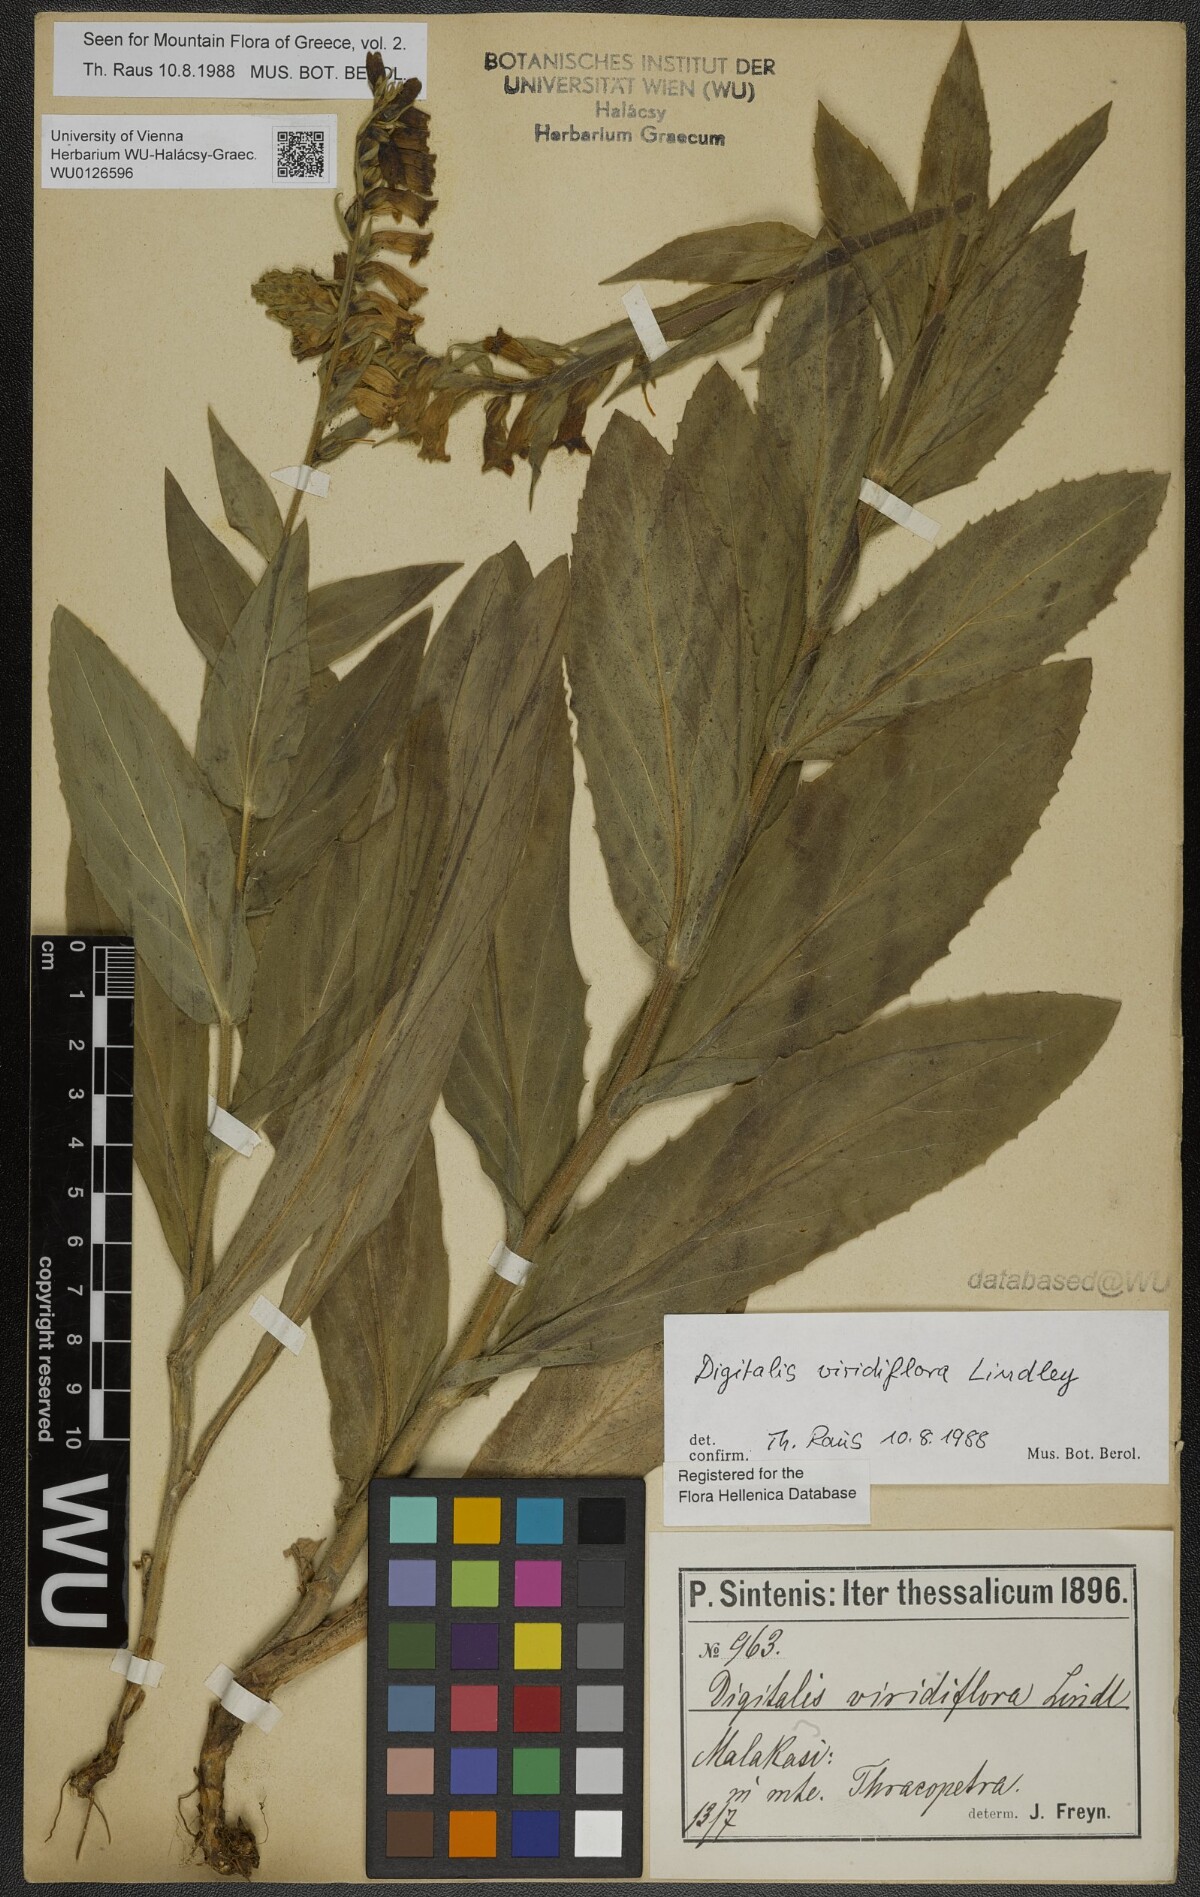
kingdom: Plantae
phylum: Tracheophyta
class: Magnoliopsida
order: Lamiales
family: Plantaginaceae
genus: Digitalis
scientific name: Digitalis viridiflora
